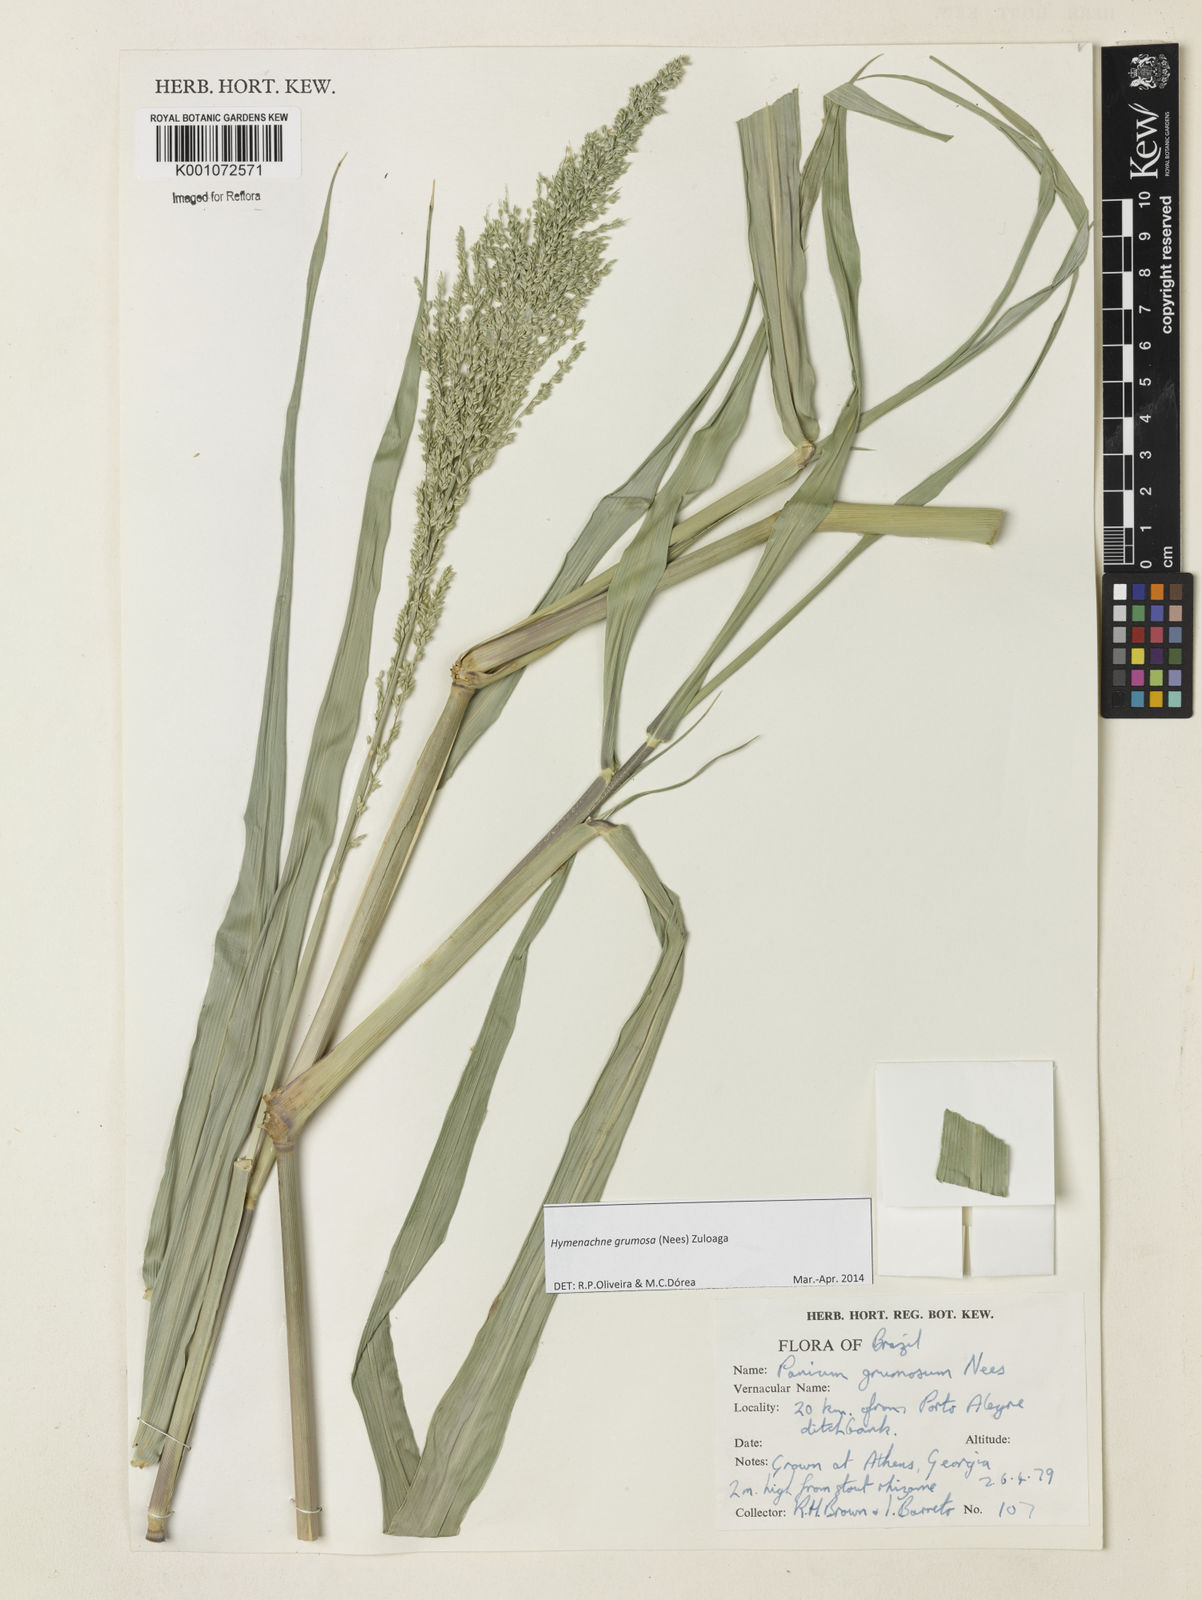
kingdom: Plantae
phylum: Tracheophyta
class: Liliopsida
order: Poales
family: Poaceae
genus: Hymenachne
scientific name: Hymenachne grumosa
